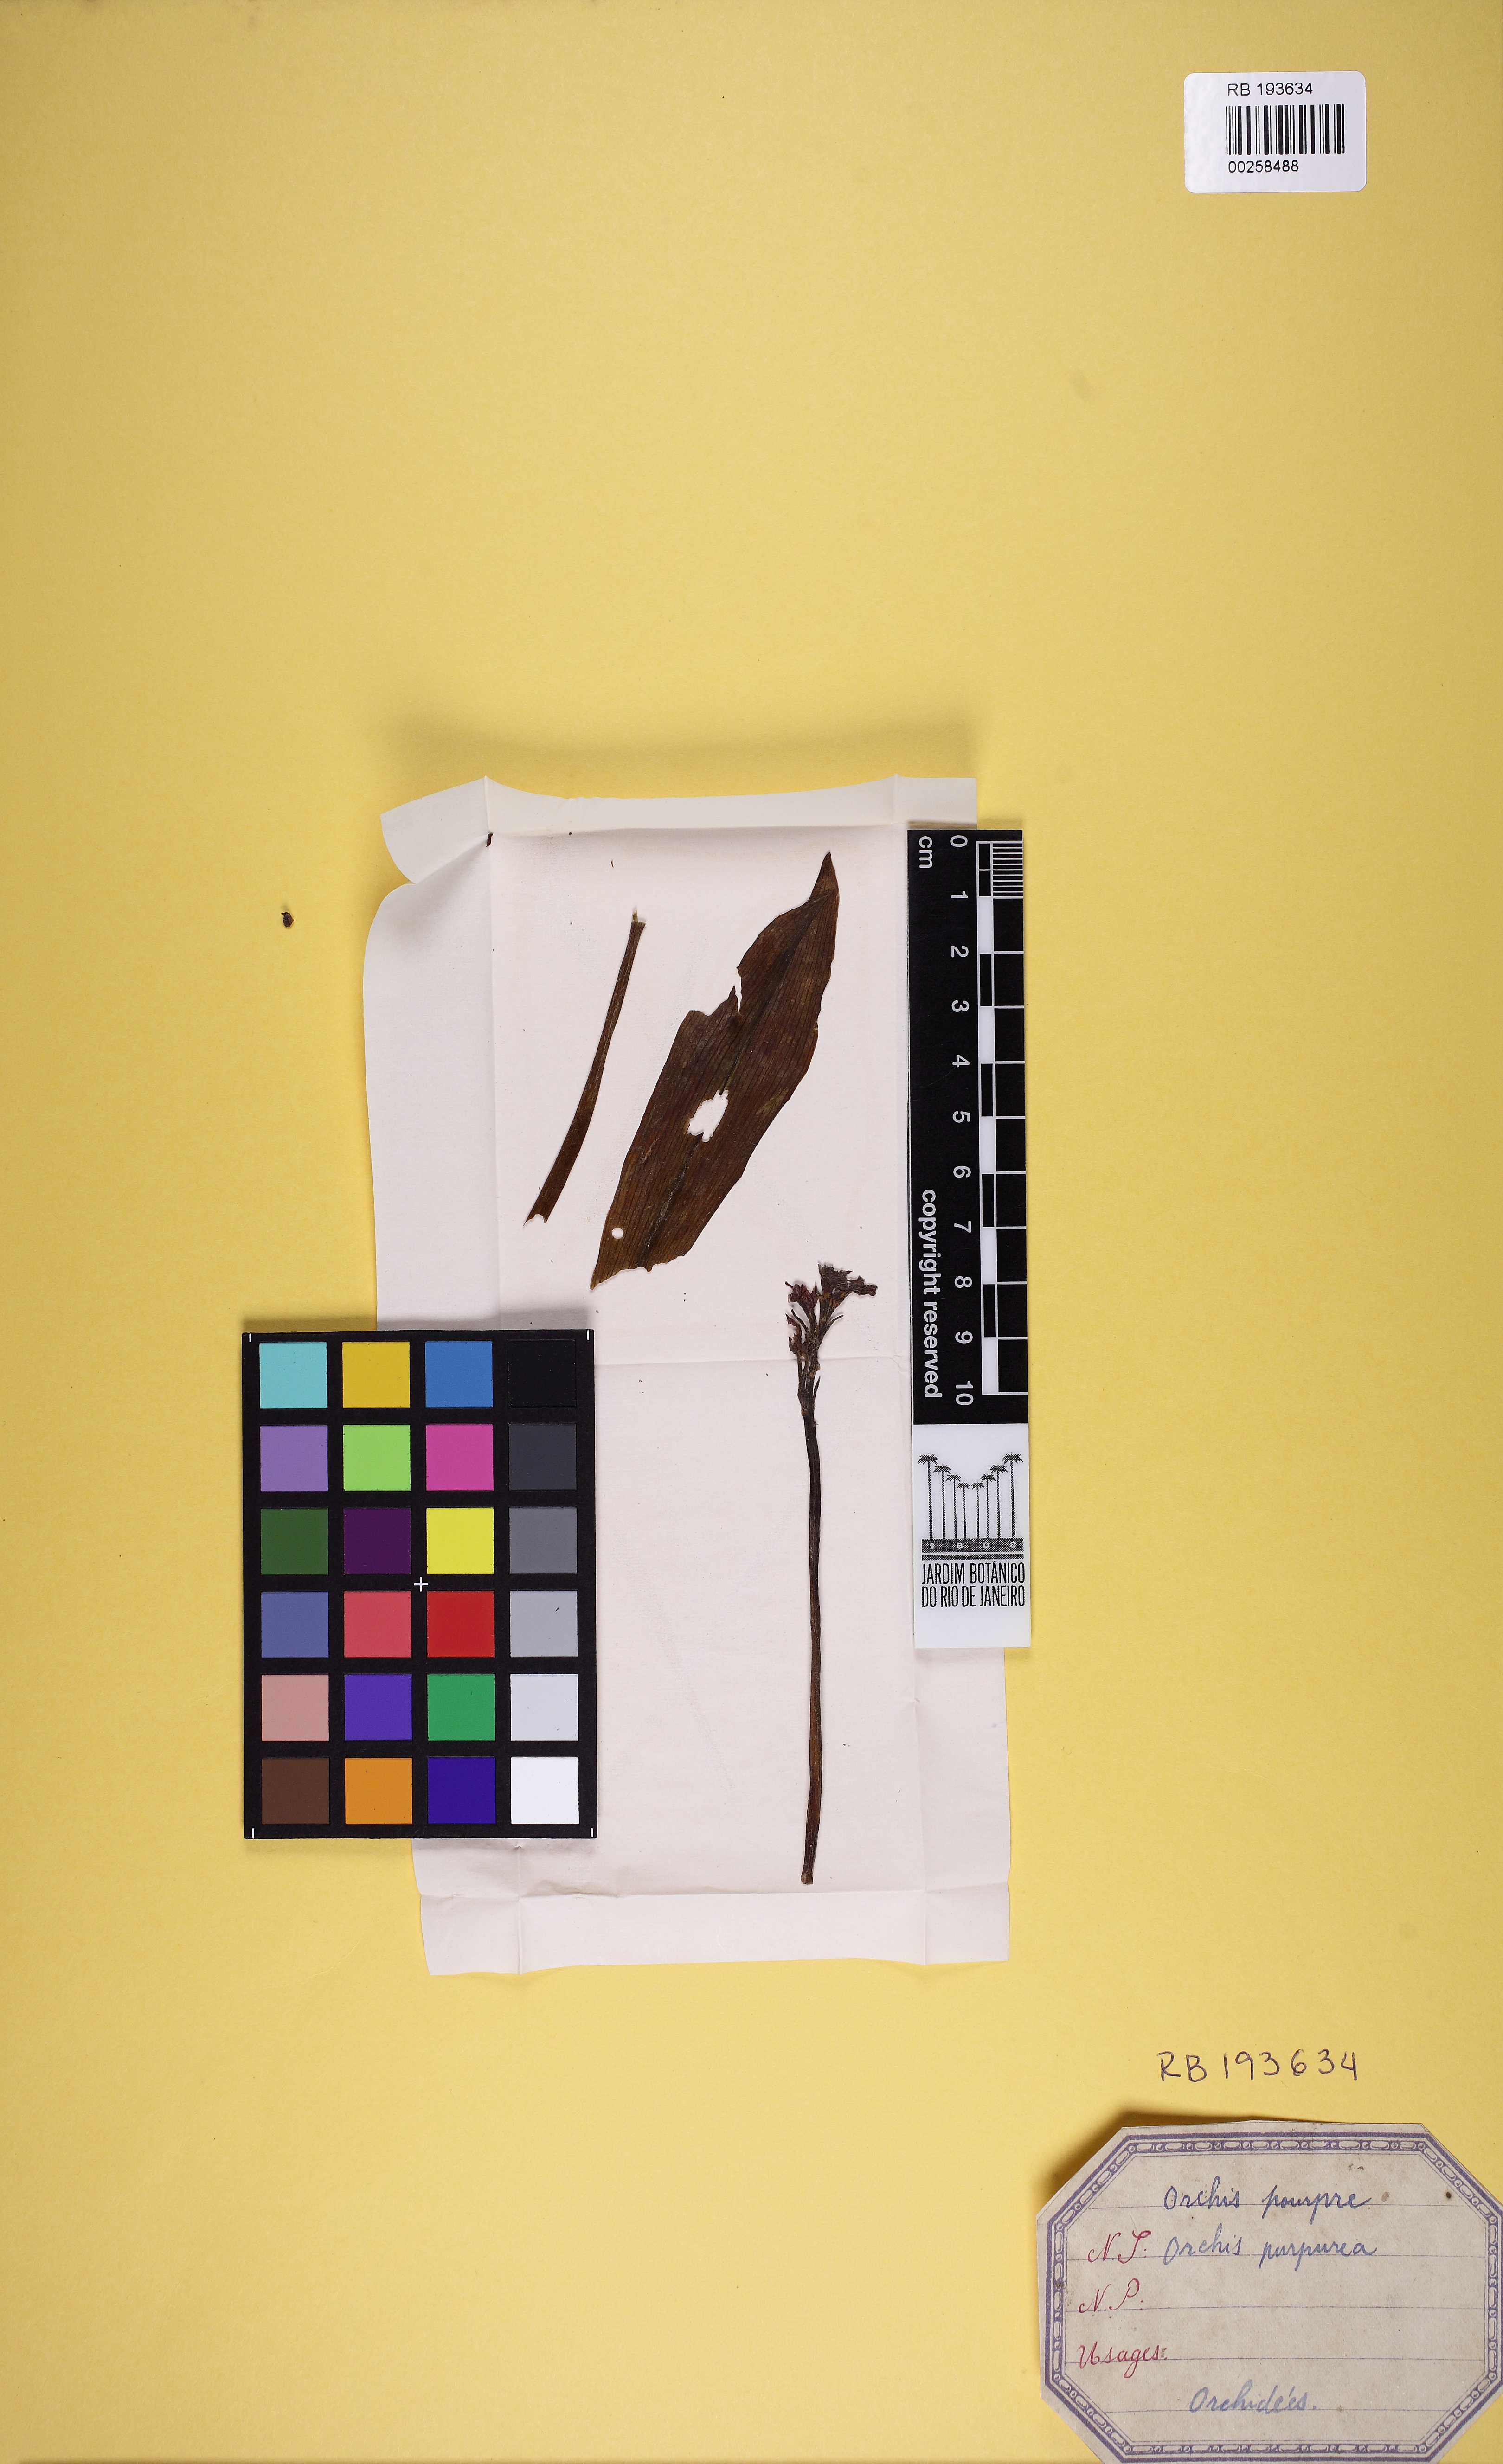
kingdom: Plantae
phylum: Tracheophyta
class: Liliopsida
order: Asparagales
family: Orchidaceae
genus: Orchis
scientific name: Orchis purpurea
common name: Lady orchid
